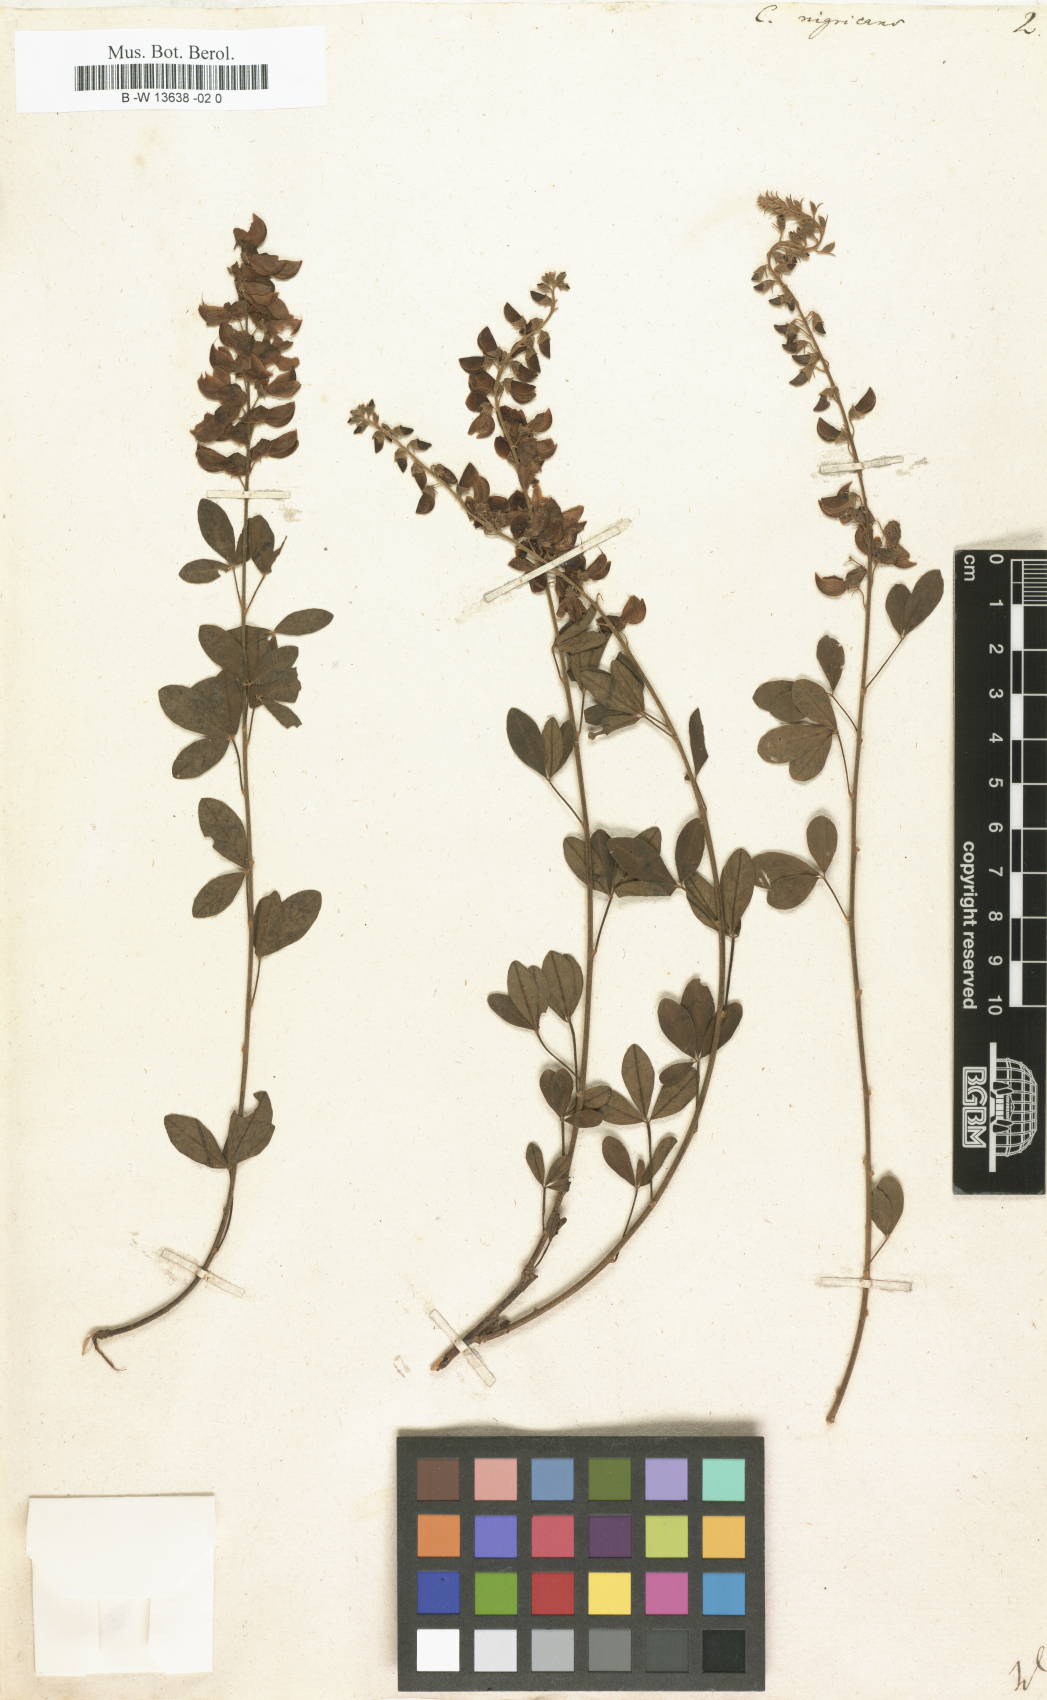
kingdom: Plantae
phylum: Tracheophyta
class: Magnoliopsida
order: Fabales
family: Fabaceae
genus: Cytisus
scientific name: Cytisus nigricans
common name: Black broom
